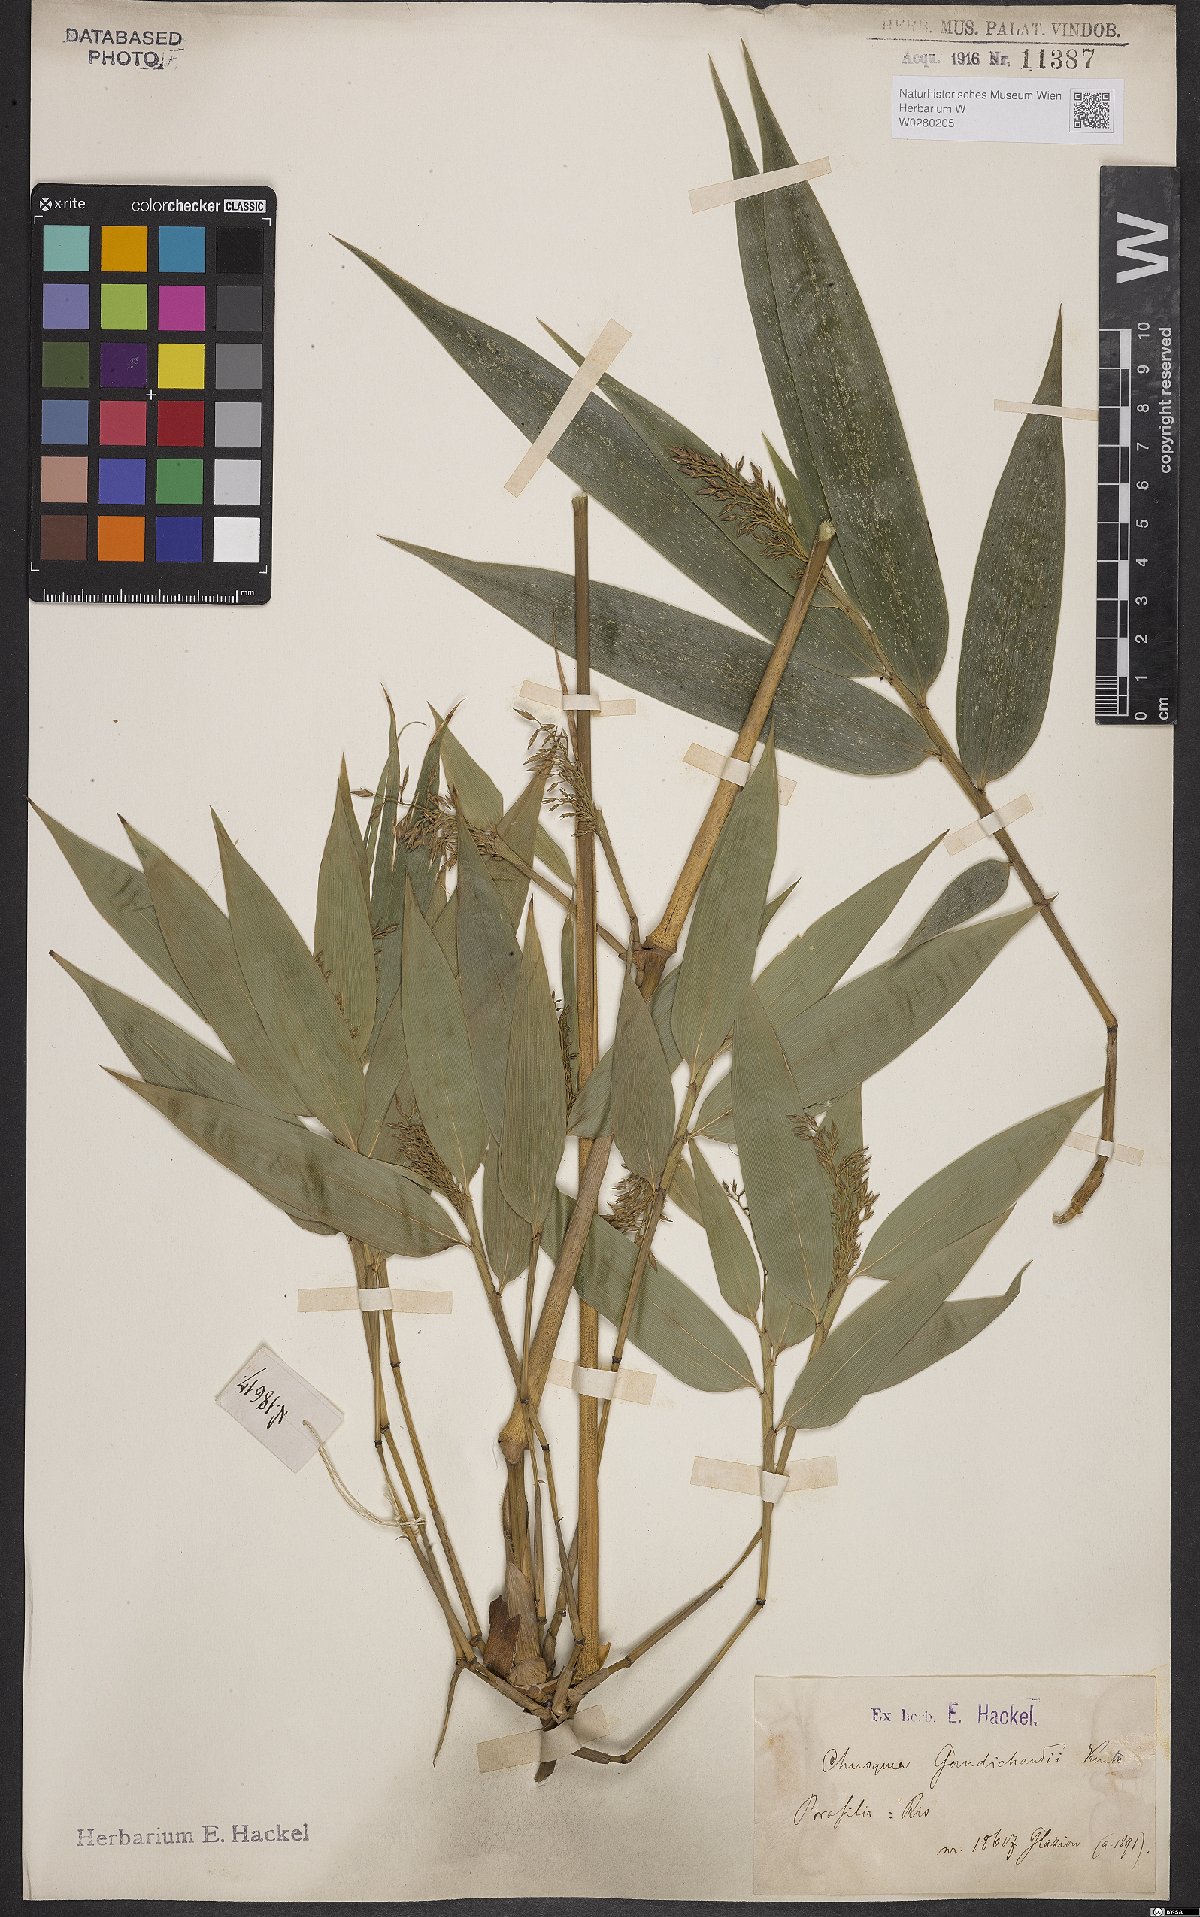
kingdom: Plantae
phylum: Tracheophyta
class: Liliopsida
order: Poales
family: Poaceae
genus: Chusquea
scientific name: Chusquea bambusoides
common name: Brazil scrambling bamboo
